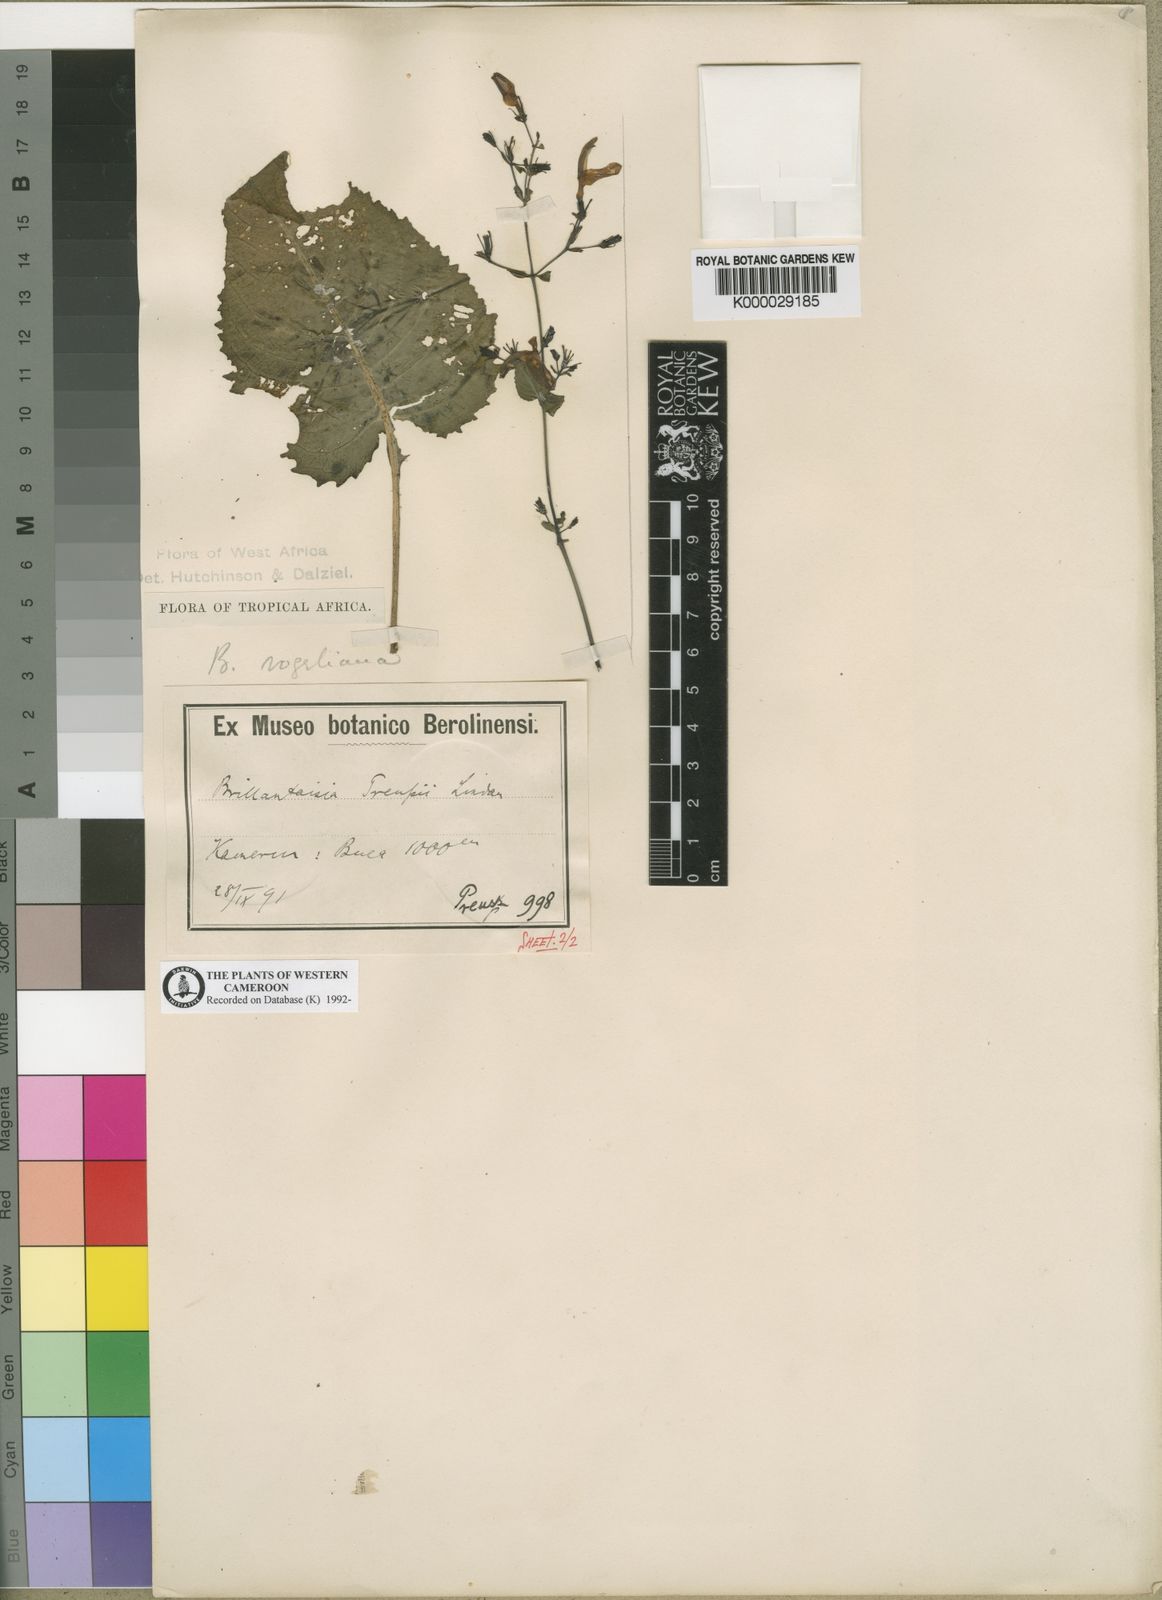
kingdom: Plantae
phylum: Tracheophyta
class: Magnoliopsida
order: Lamiales
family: Acanthaceae
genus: Brillantaisia
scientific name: Brillantaisia vogeliana
